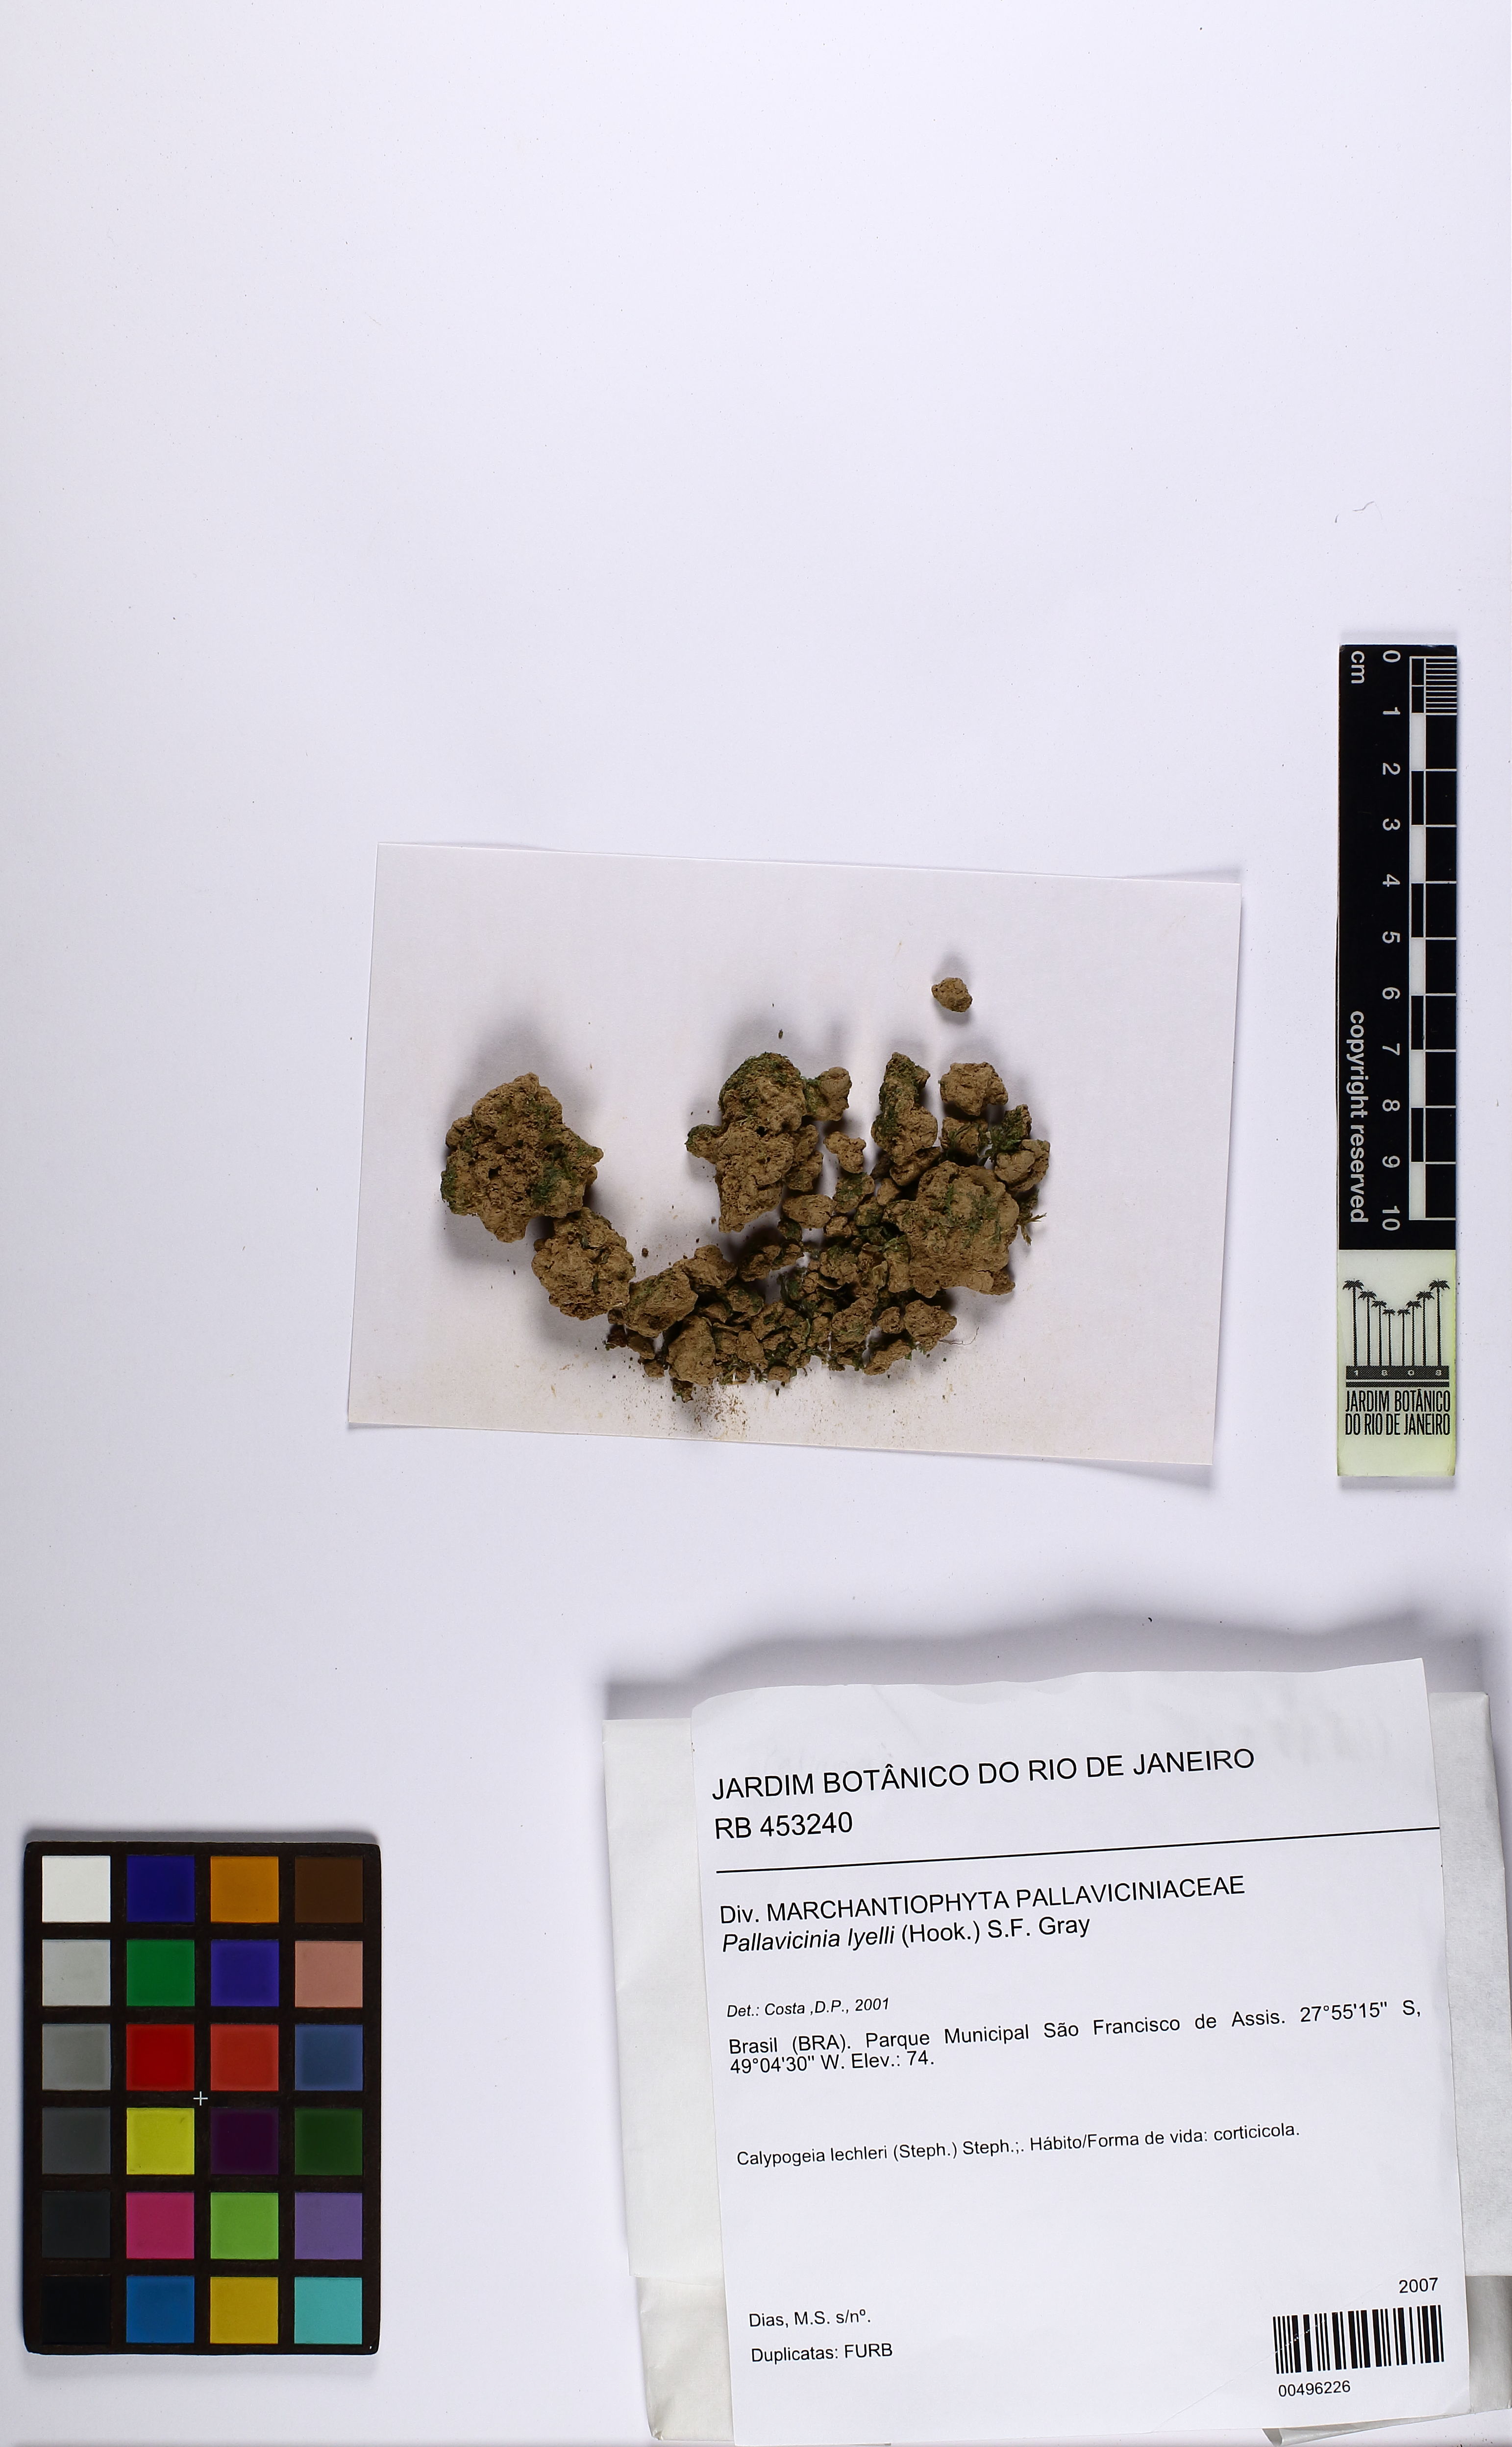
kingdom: Plantae
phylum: Marchantiophyta
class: Jungermanniopsida
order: Pallaviciniales
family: Pallaviciniaceae
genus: Pallavicinia
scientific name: Pallavicinia lyellii
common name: Veilwort
